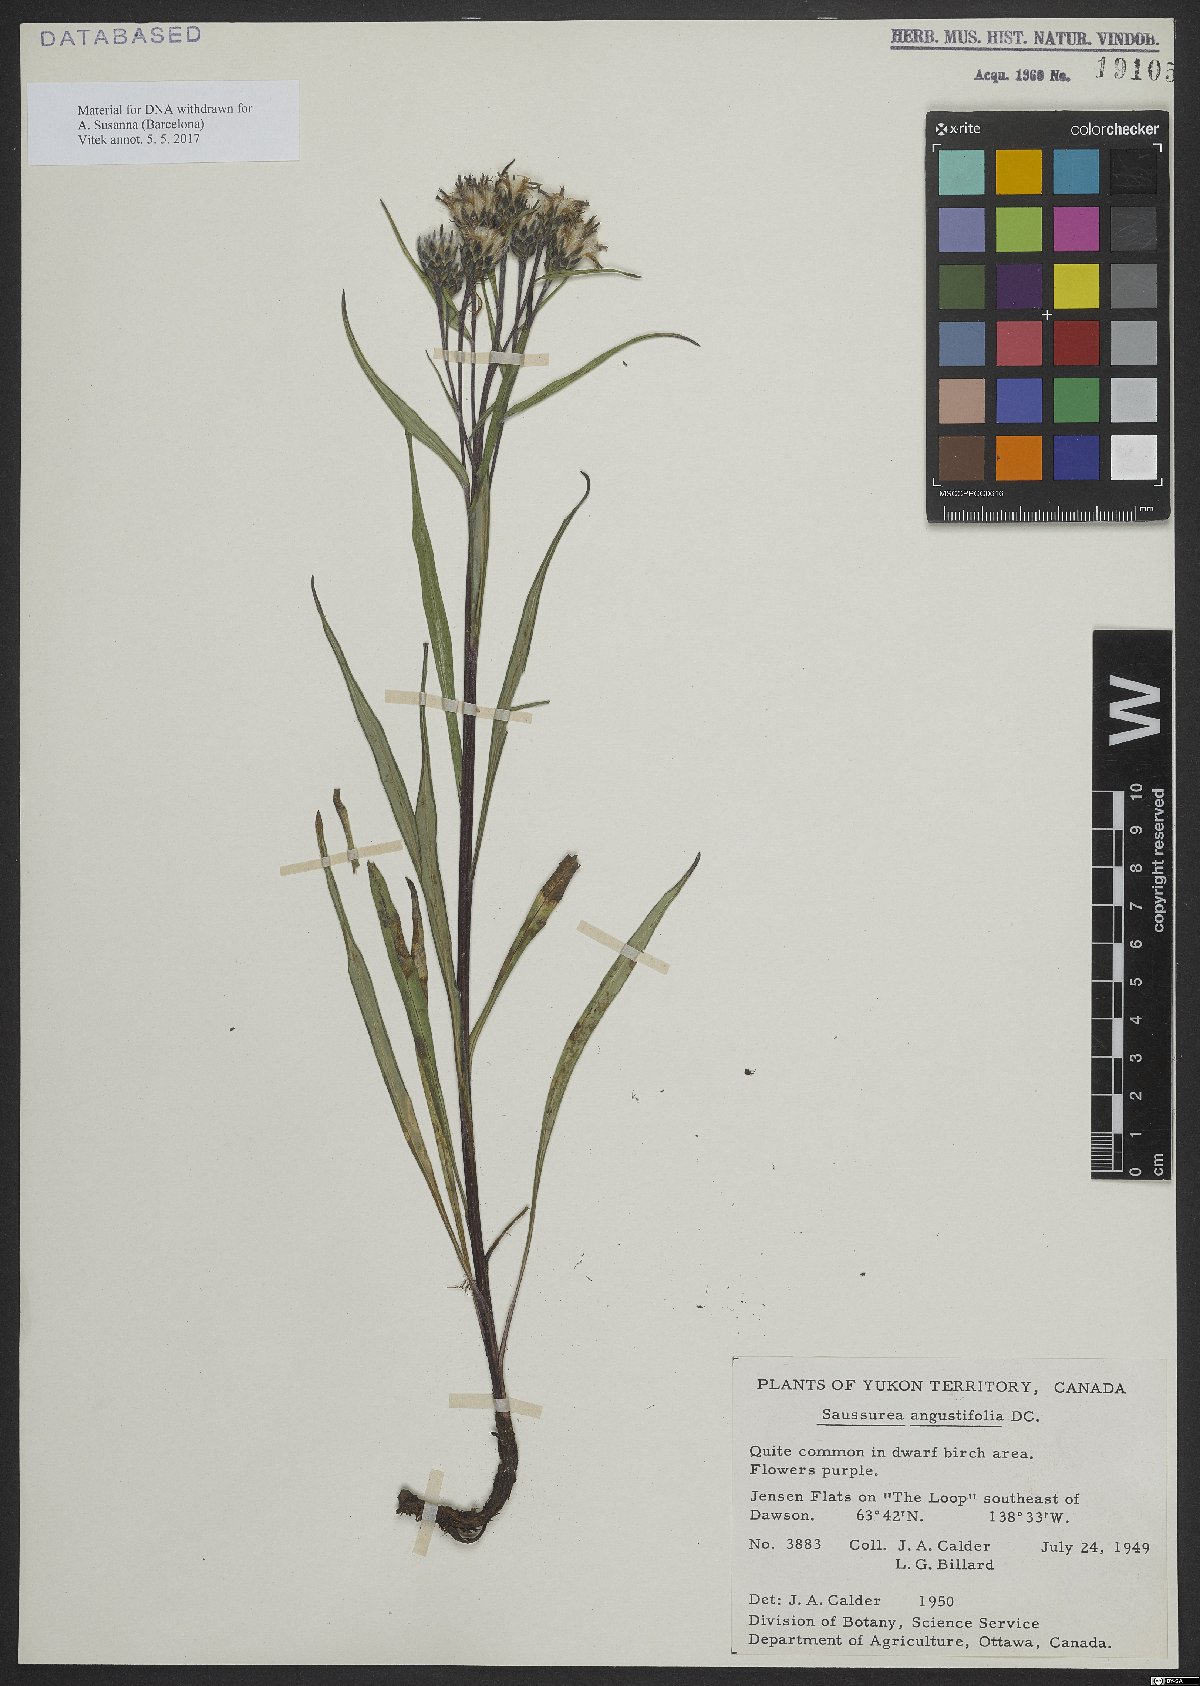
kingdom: Plantae
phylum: Tracheophyta
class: Magnoliopsida
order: Asterales
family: Asteraceae
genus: Saussurea
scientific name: Saussurea angustifolia
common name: Common saussurea
